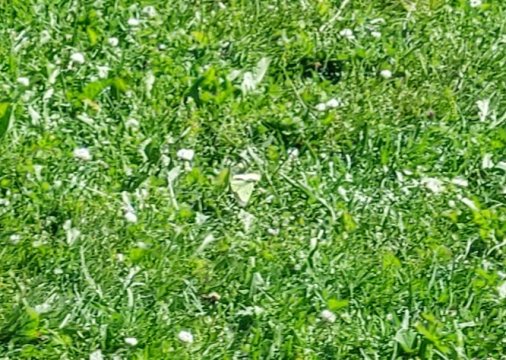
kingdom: Animalia
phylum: Arthropoda
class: Insecta
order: Lepidoptera
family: Pieridae
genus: Colias
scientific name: Colias philodice
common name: Clouded Sulphur
